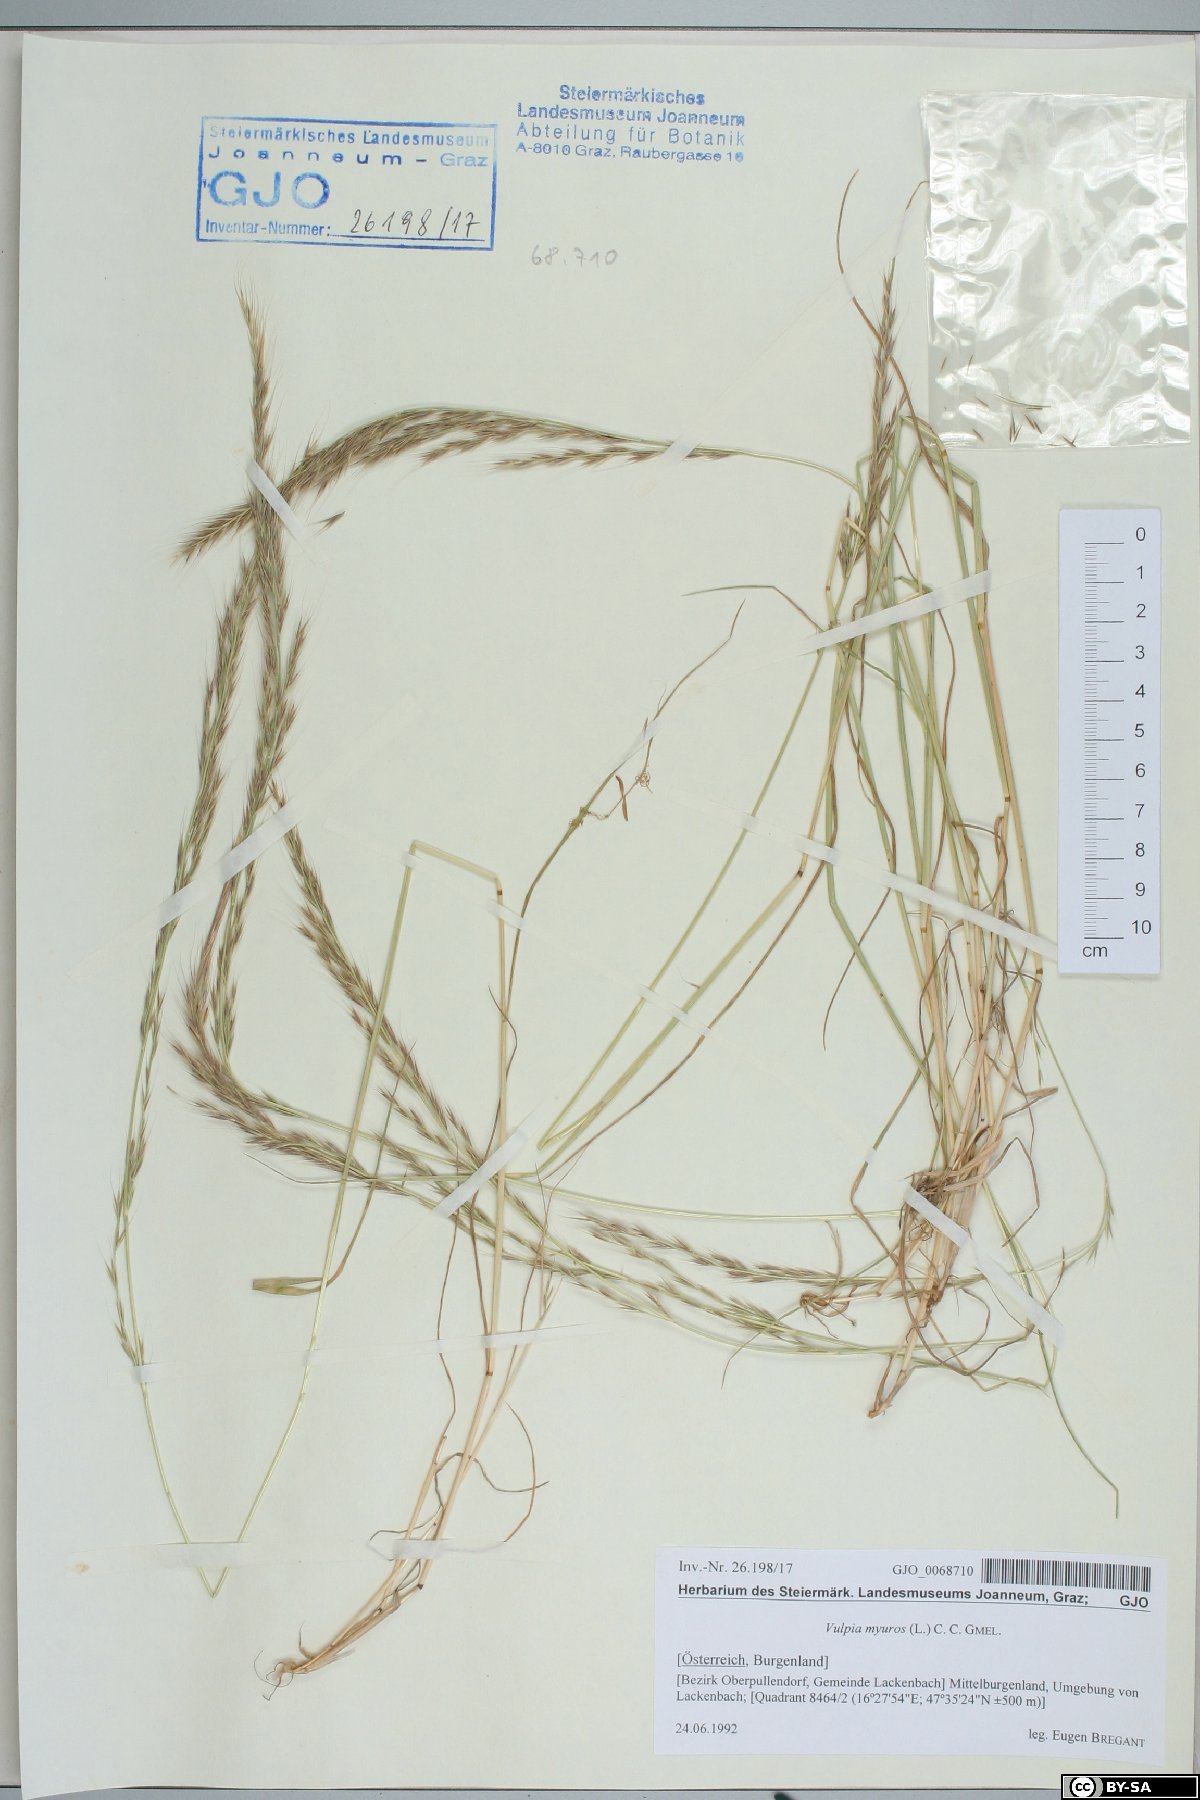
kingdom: Plantae
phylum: Tracheophyta
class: Liliopsida
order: Poales
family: Poaceae
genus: Festuca
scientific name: Festuca myuros
